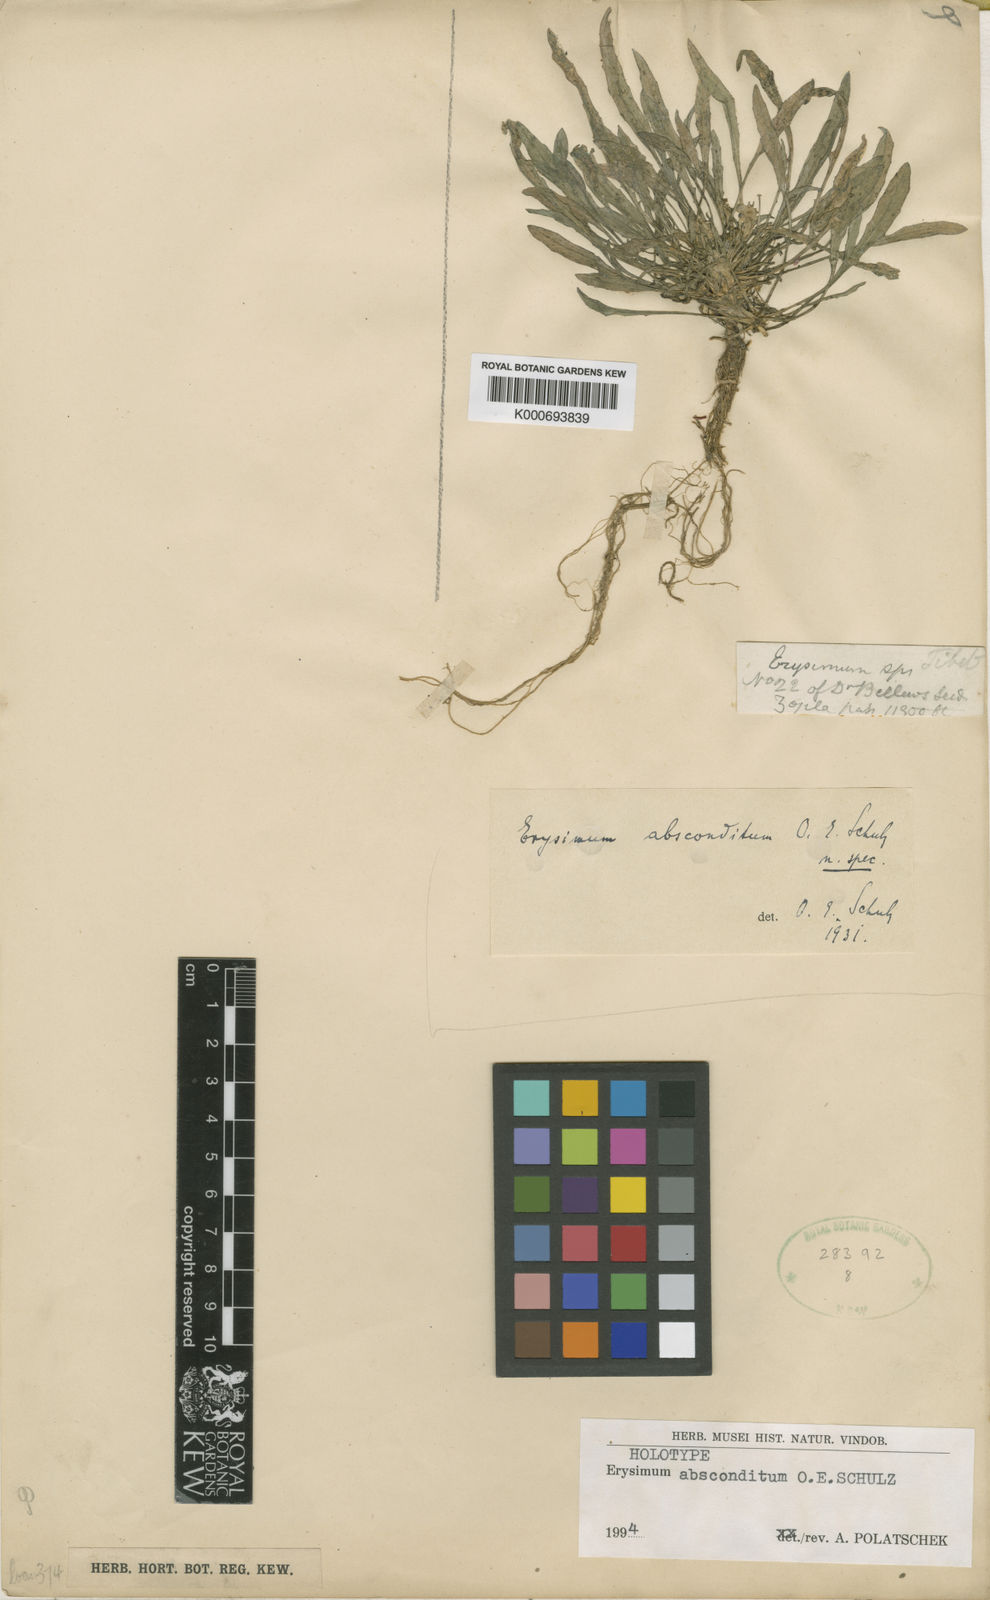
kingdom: Plantae
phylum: Tracheophyta
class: Magnoliopsida
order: Brassicales
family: Brassicaceae
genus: Erysimum
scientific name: Erysimum funiculosum
